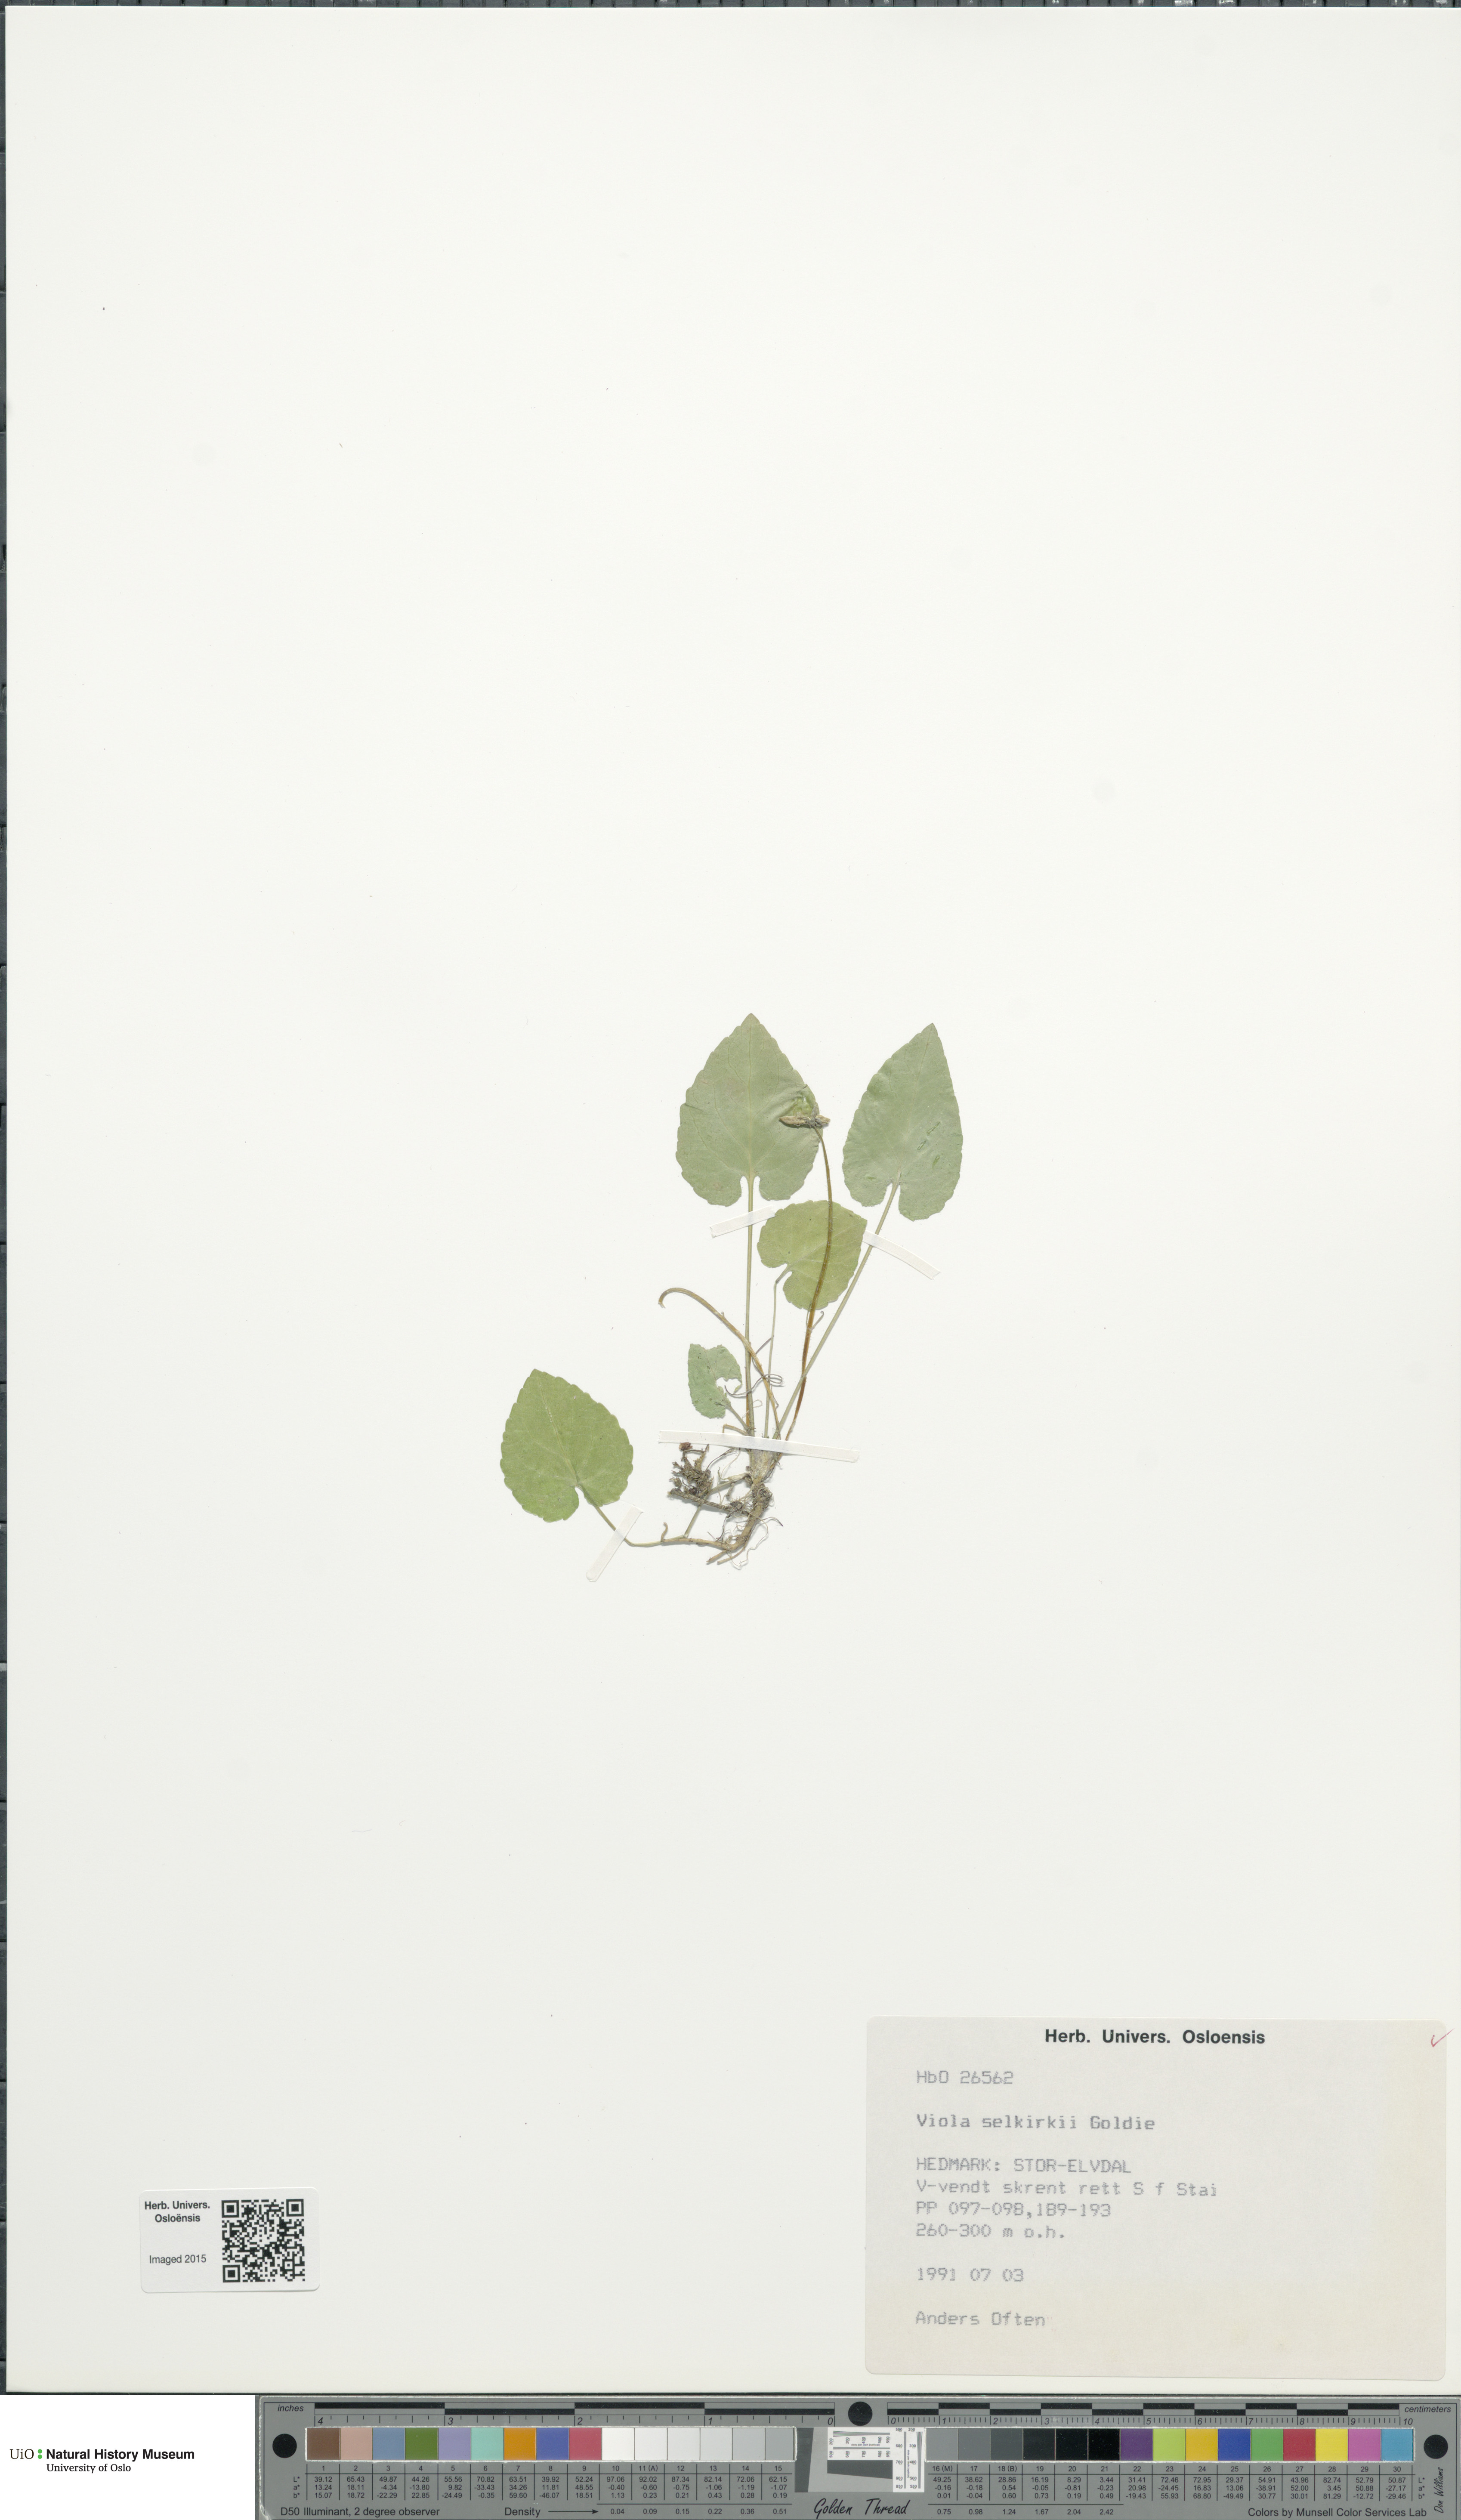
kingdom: Plantae
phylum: Tracheophyta
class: Magnoliopsida
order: Malpighiales
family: Violaceae
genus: Viola
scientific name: Viola selkirkii
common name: Selkirk's violet
